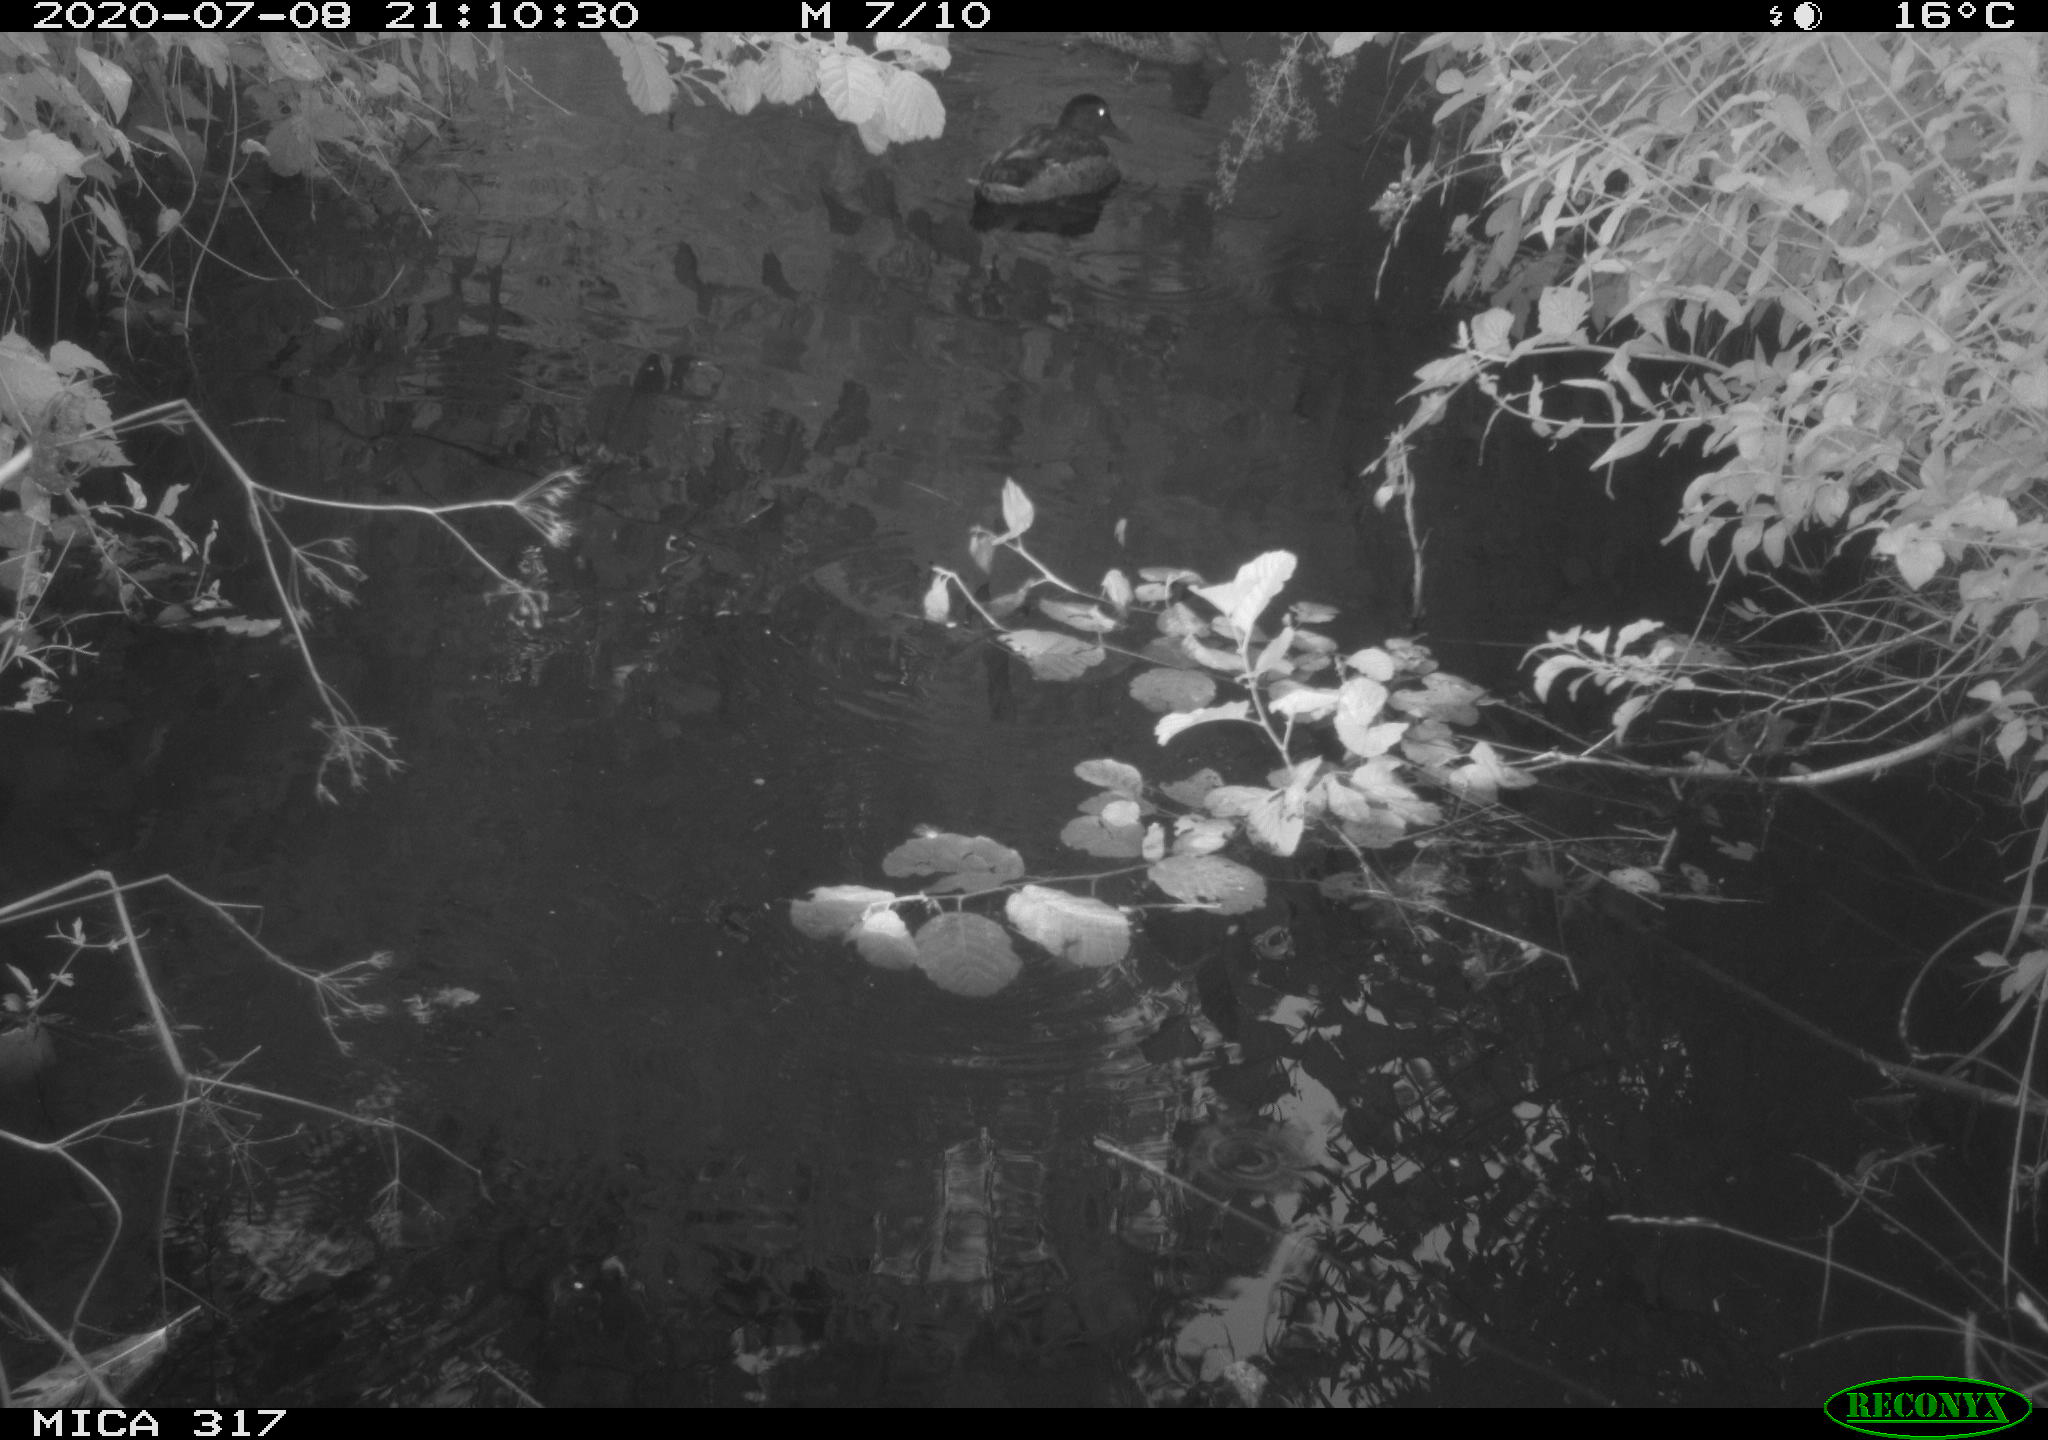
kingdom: Animalia
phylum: Chordata
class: Aves
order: Anseriformes
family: Anatidae
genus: Anas
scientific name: Anas platyrhynchos
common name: Mallard
